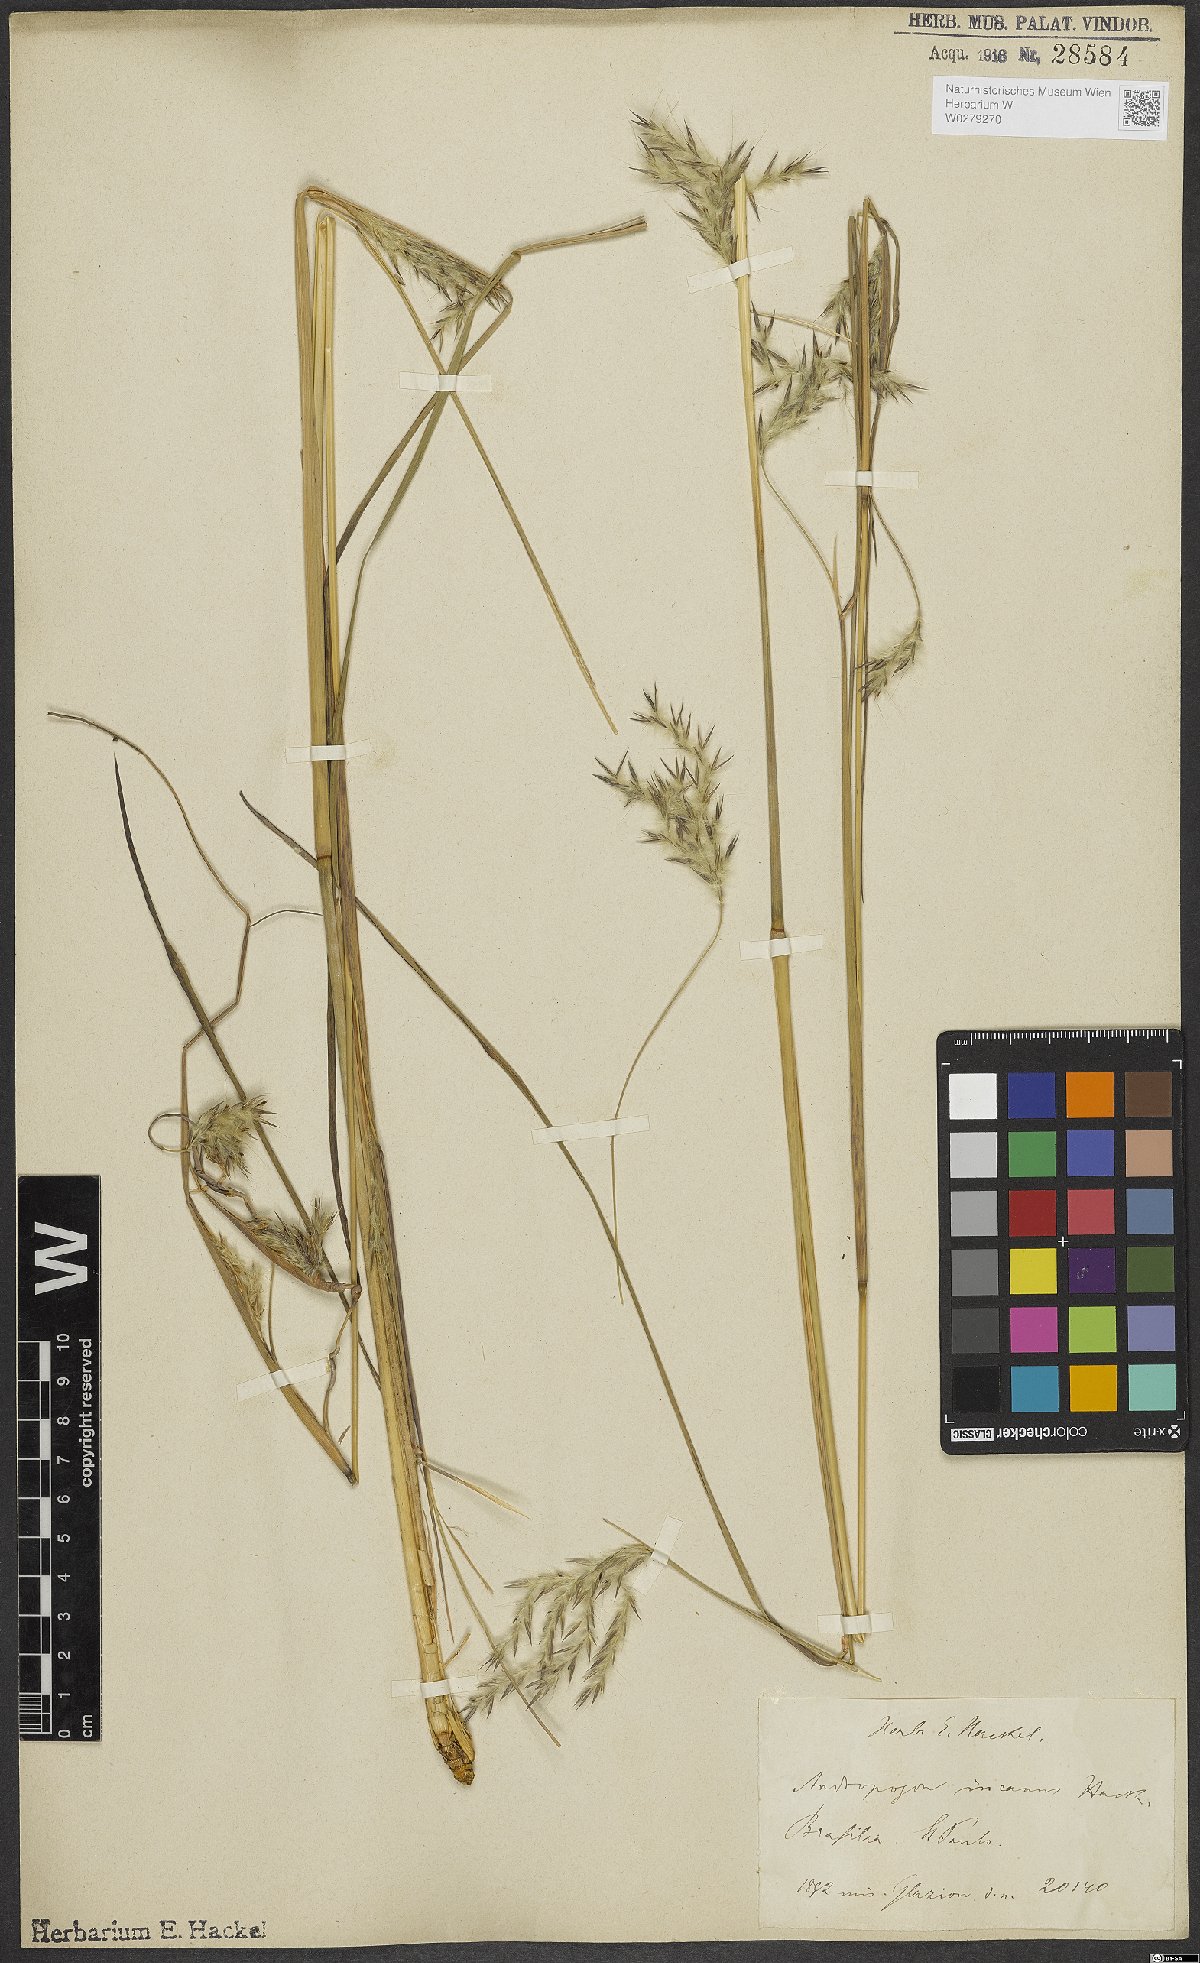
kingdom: Plantae
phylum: Tracheophyta
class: Liliopsida
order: Poales
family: Poaceae
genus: Andropogon
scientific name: Andropogon lateralis
